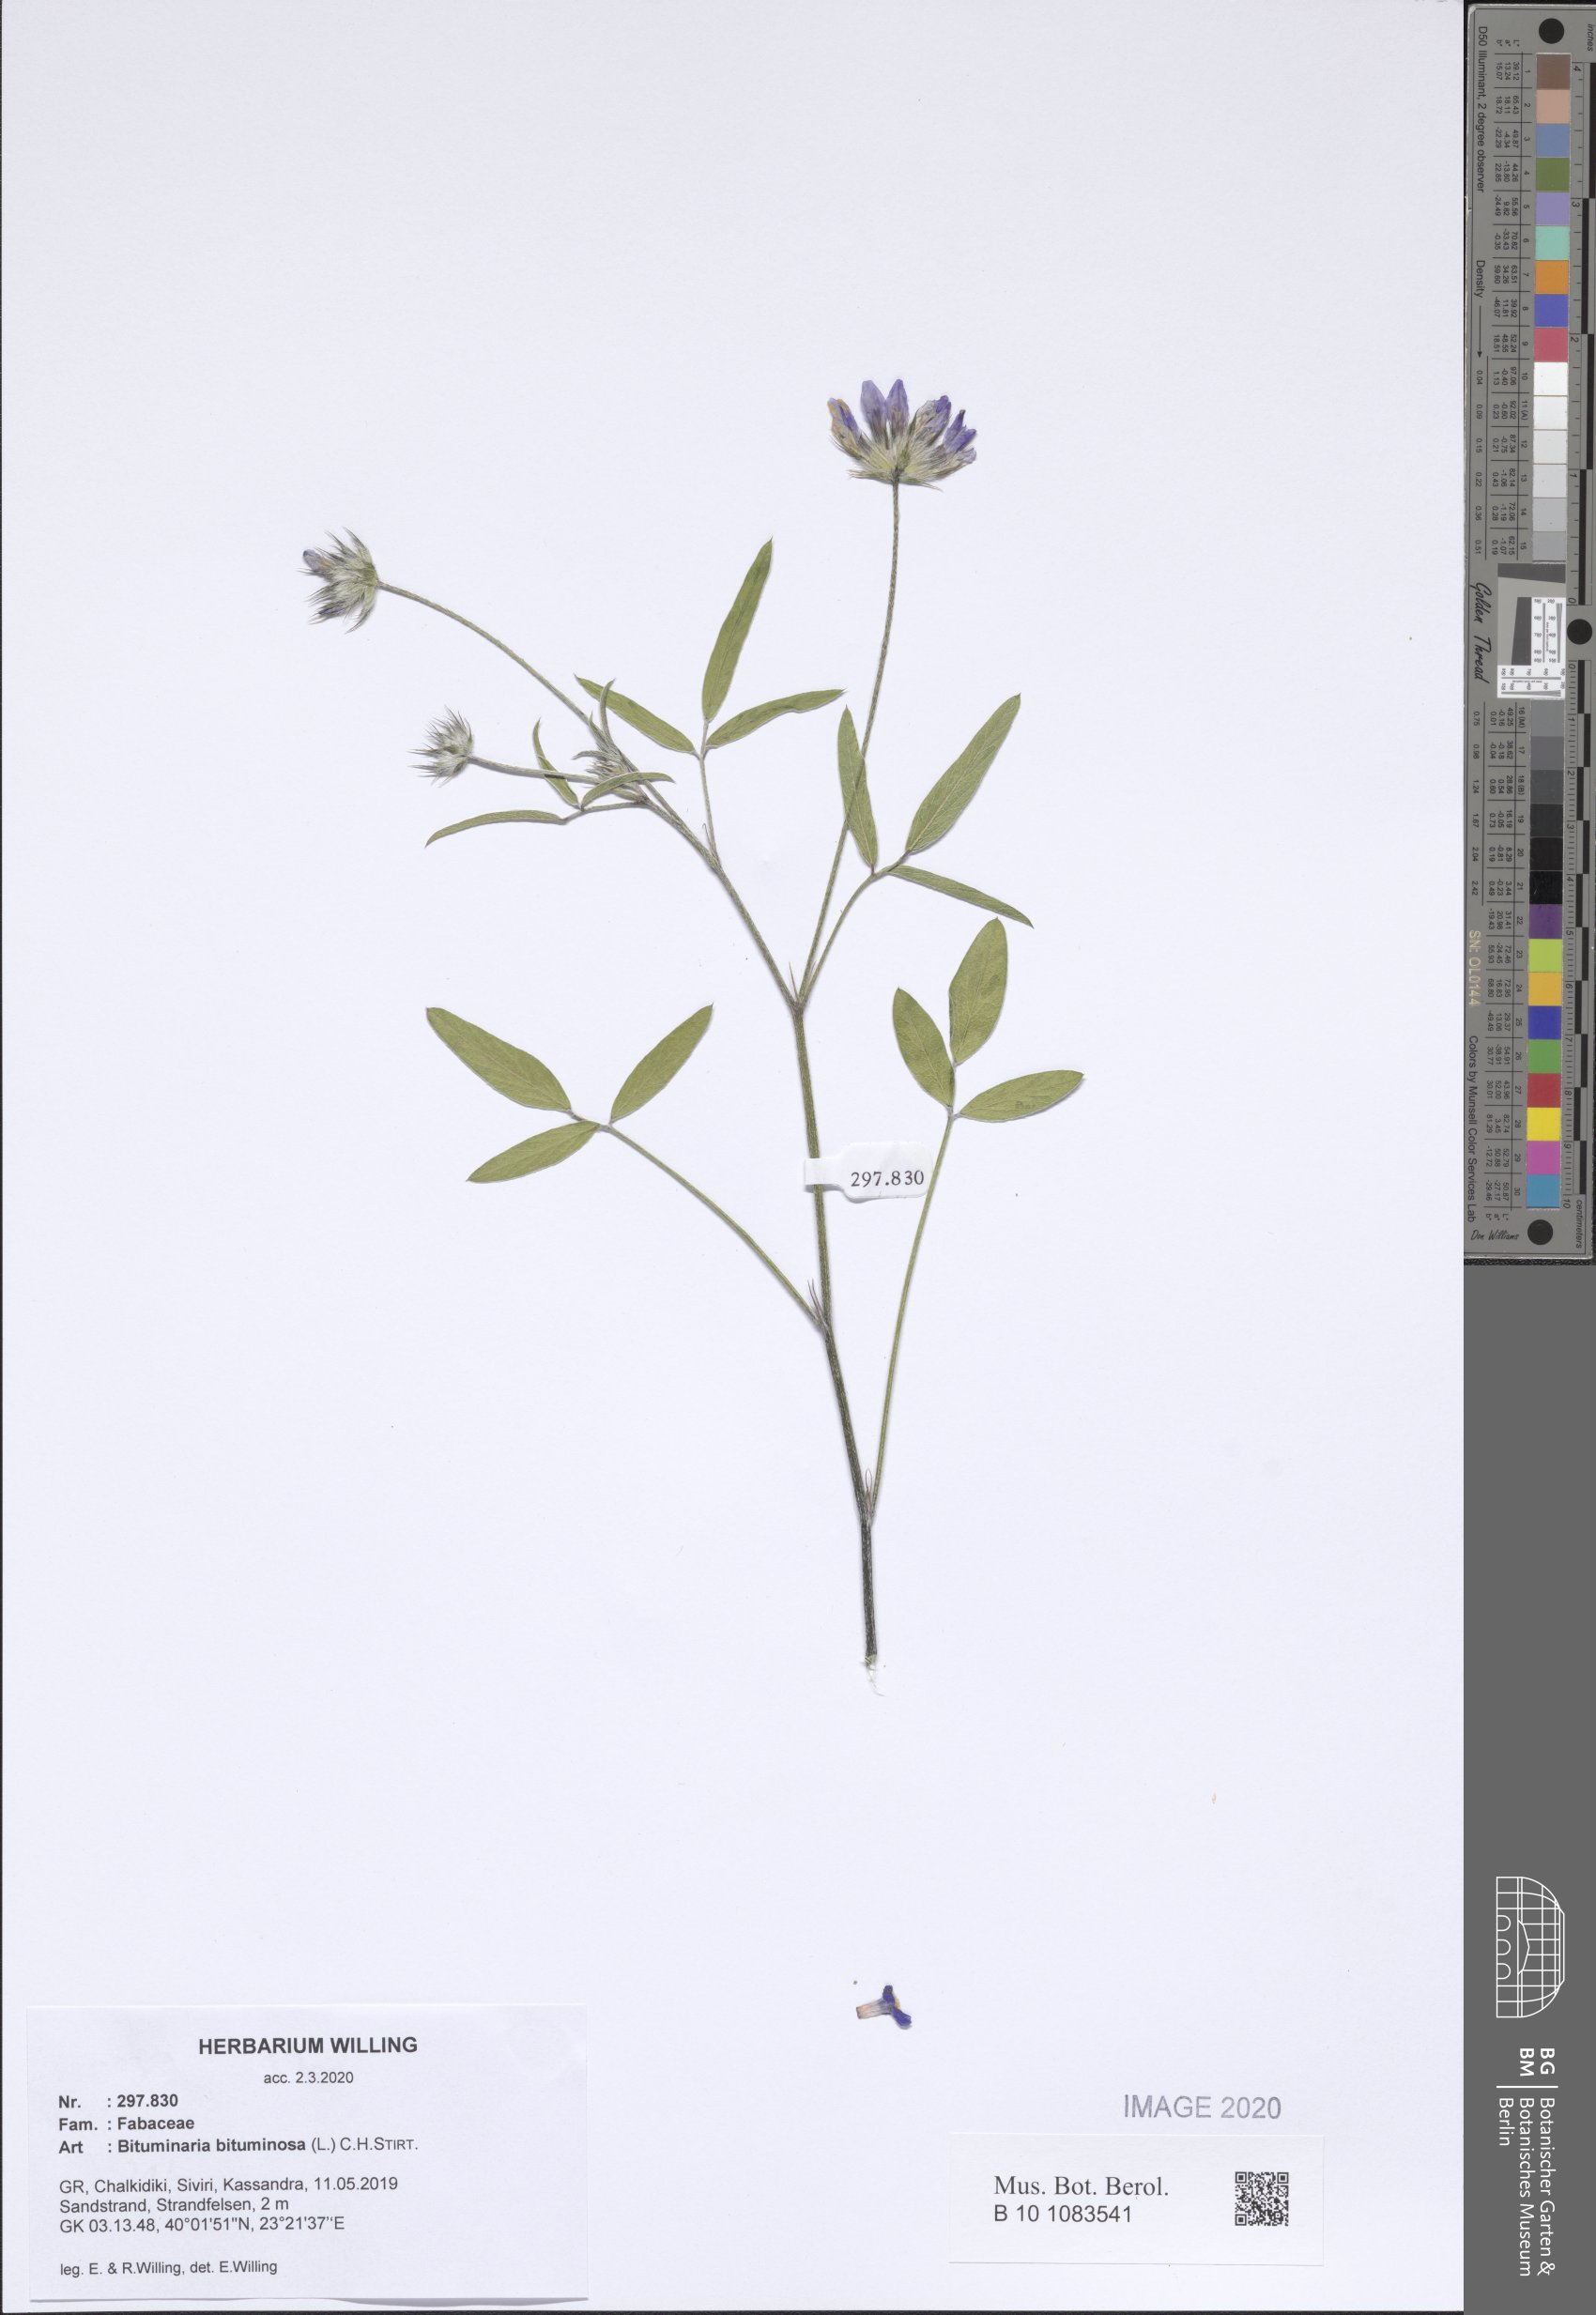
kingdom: Plantae
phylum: Tracheophyta
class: Magnoliopsida
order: Fabales
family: Fabaceae
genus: Bituminaria
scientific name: Bituminaria bituminosa
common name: Arabian pea
